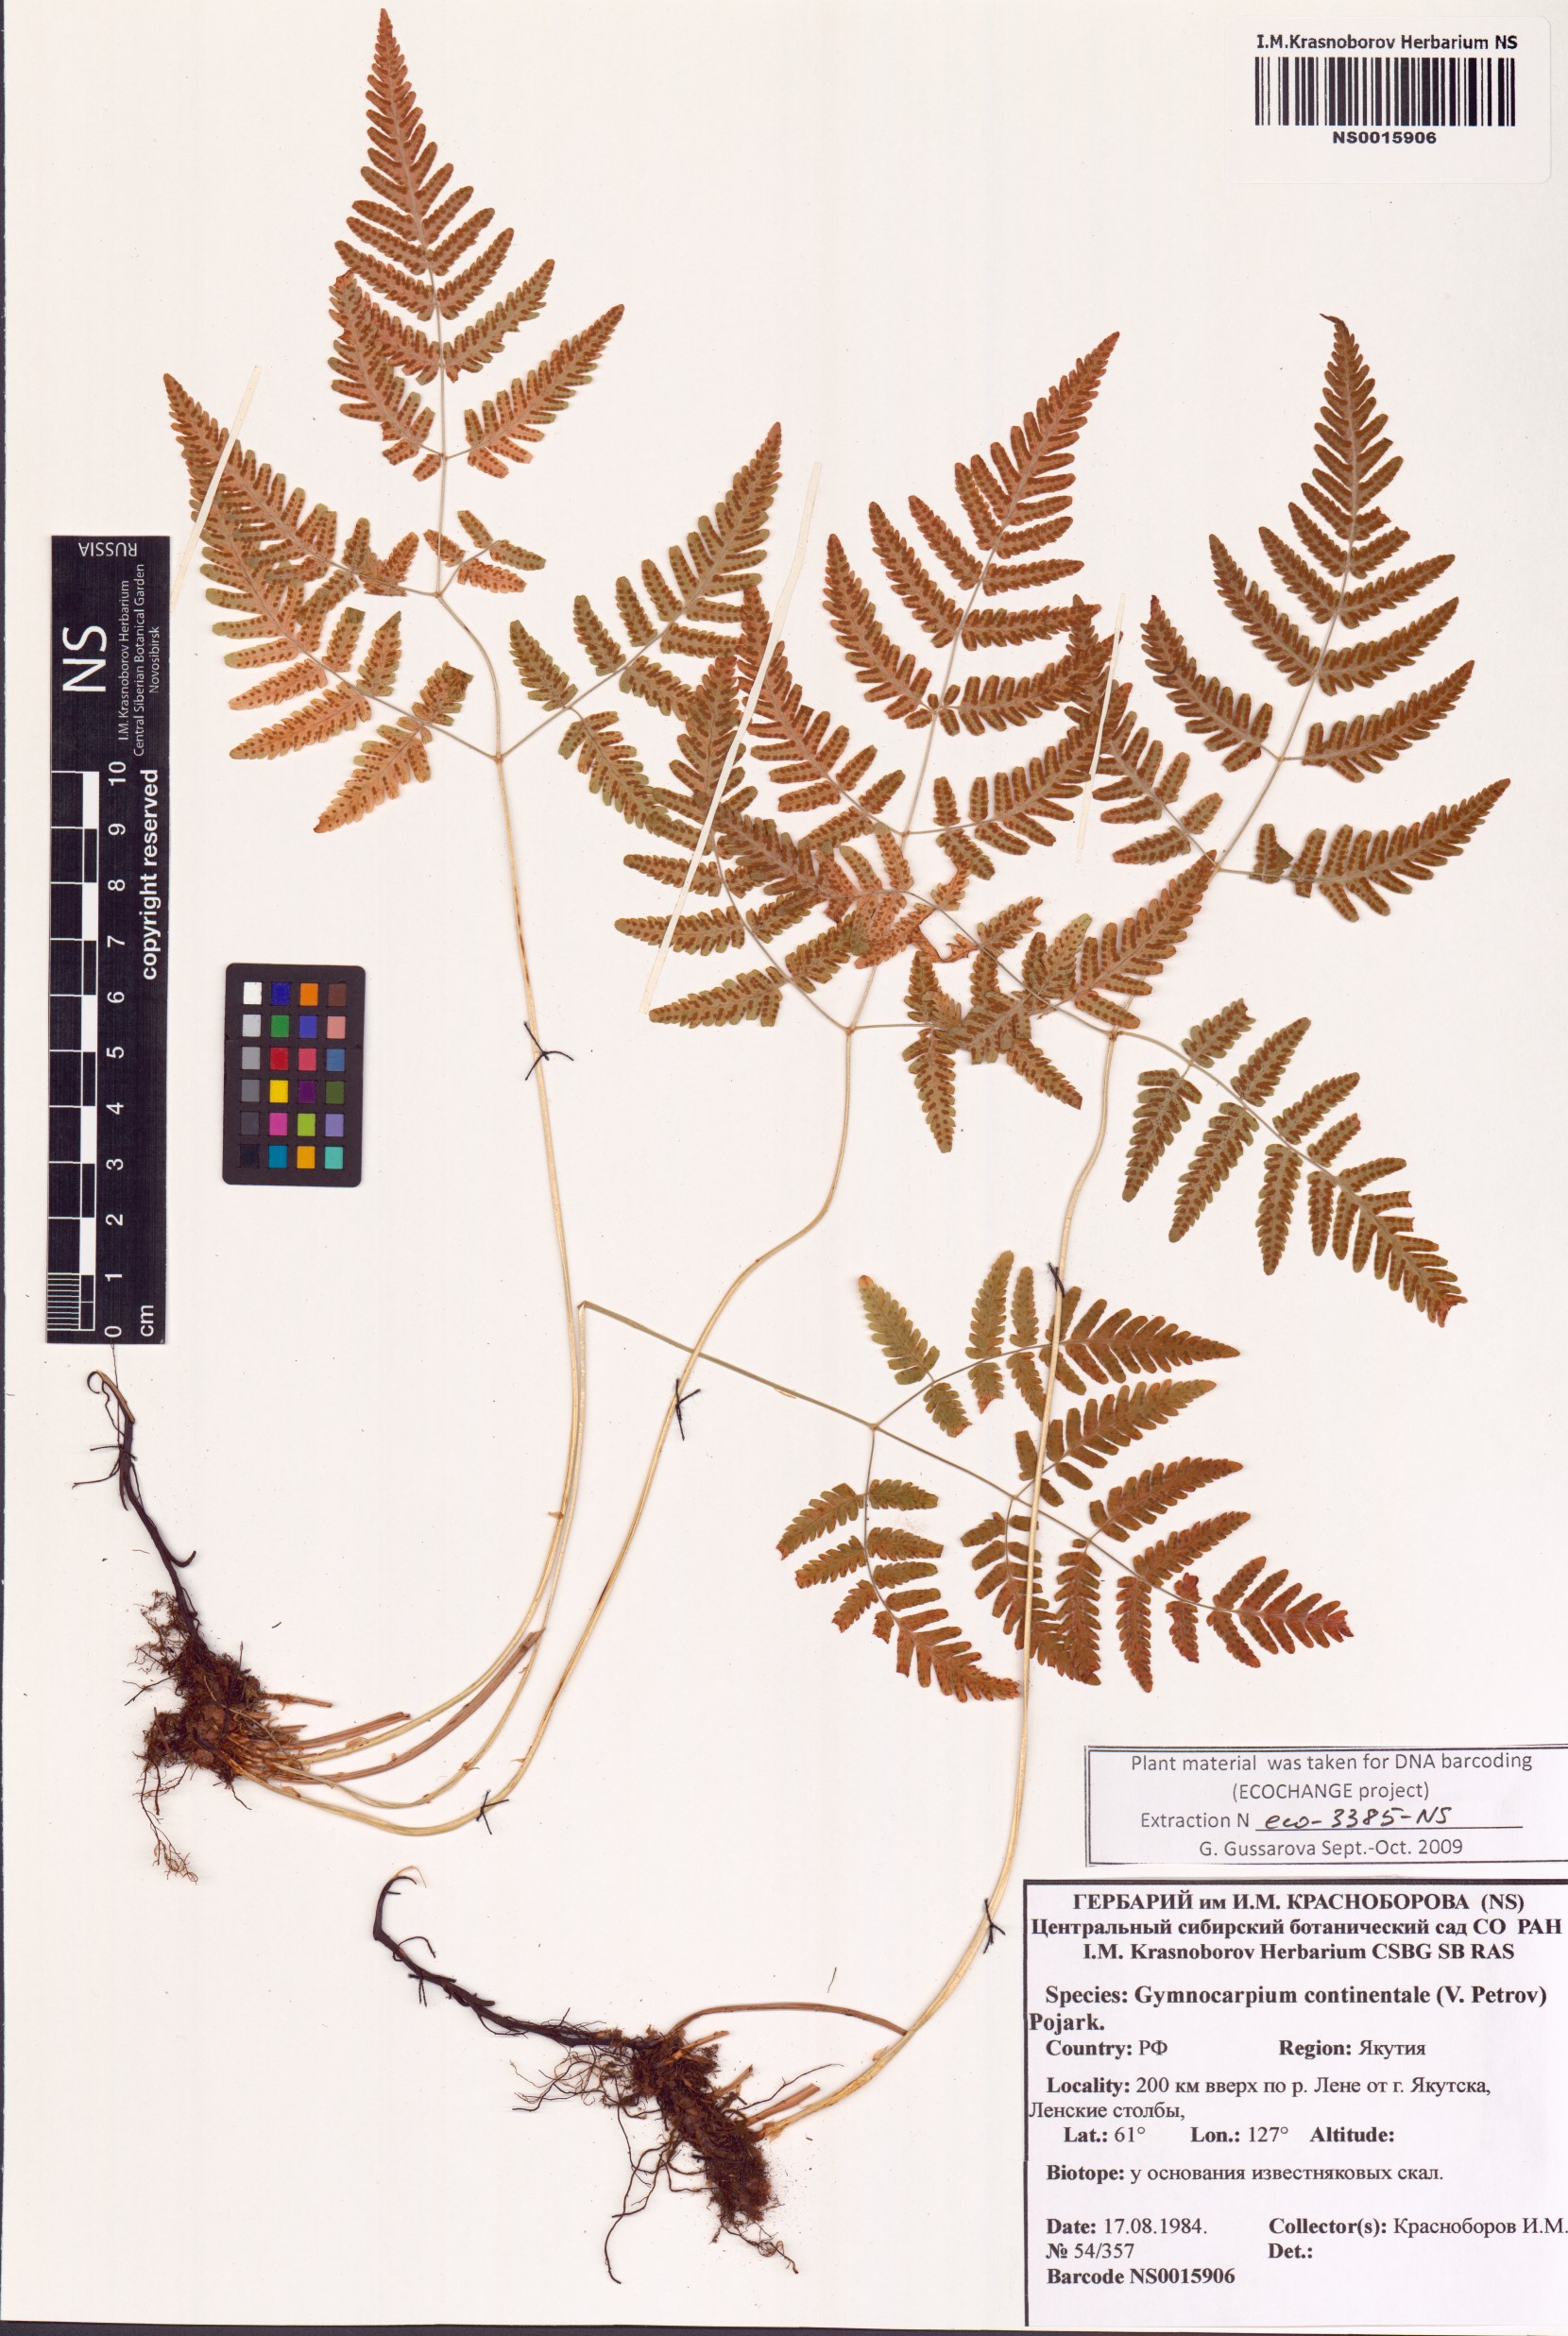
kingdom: Plantae
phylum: Tracheophyta
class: Polypodiopsida
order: Polypodiales
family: Cystopteridaceae
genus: Gymnocarpium
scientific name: Gymnocarpium continentale
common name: Asian oak fern
